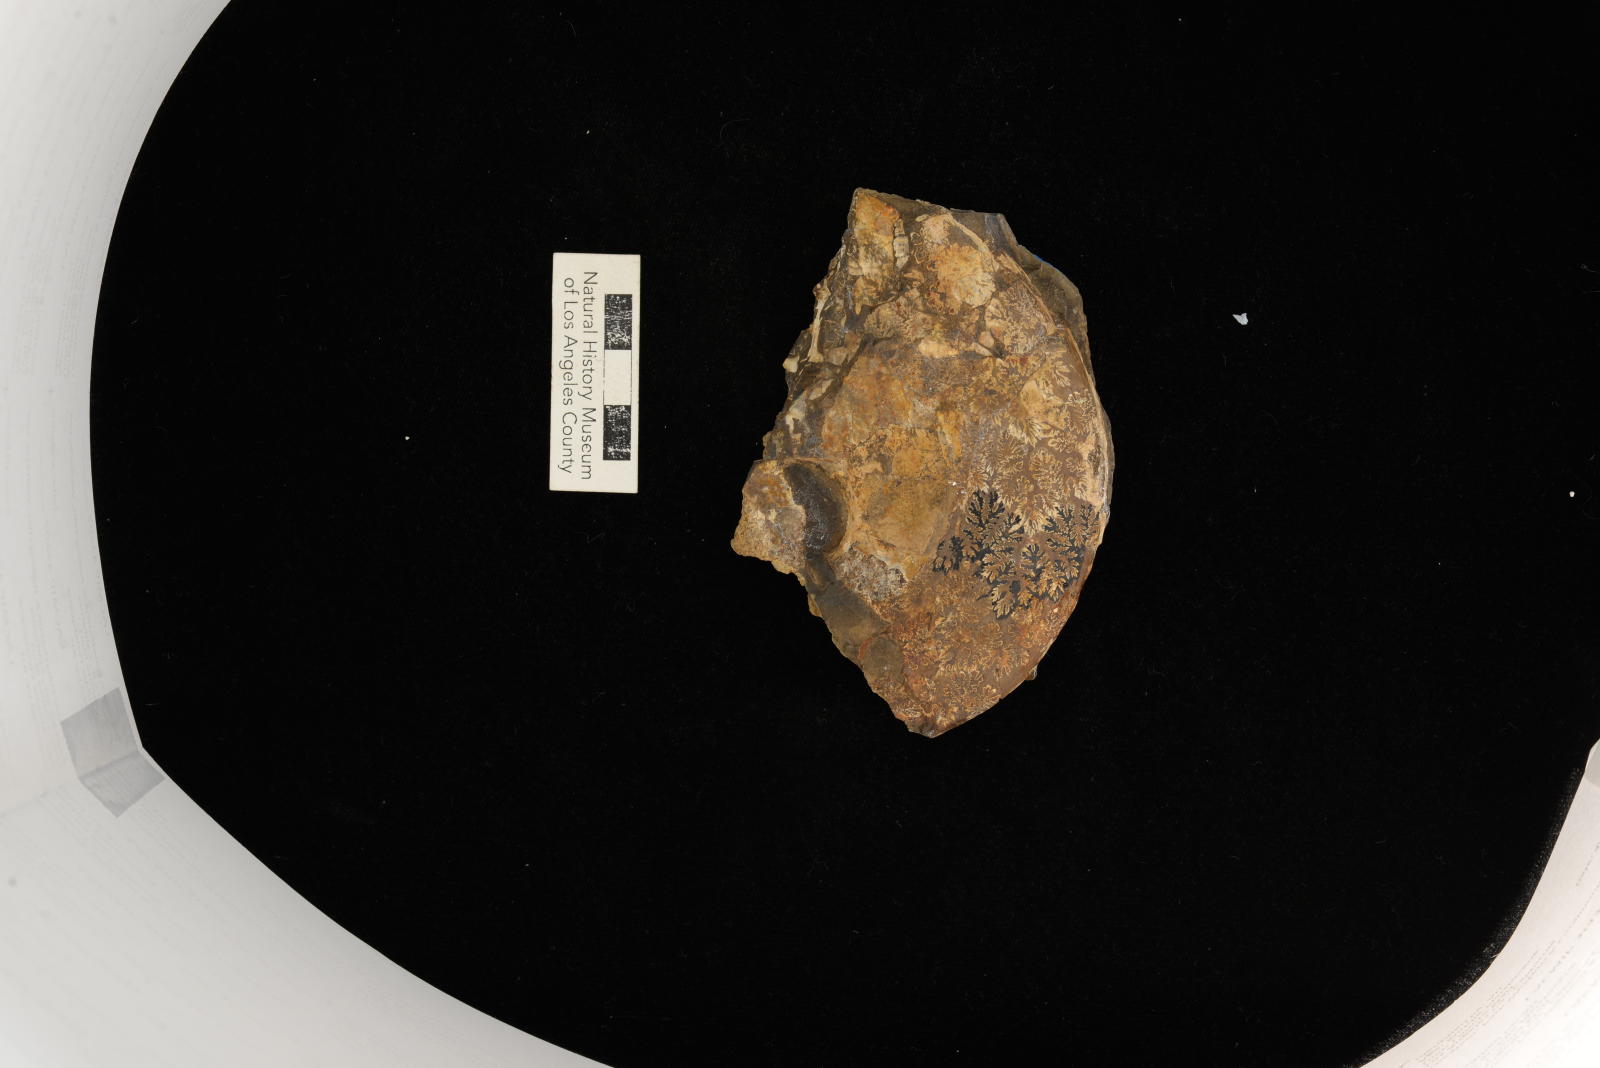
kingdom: Animalia
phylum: Mollusca
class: Cephalopoda
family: Desmoceratidae
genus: Beudanticeras
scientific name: Beudanticeras Ammonites haydenii
